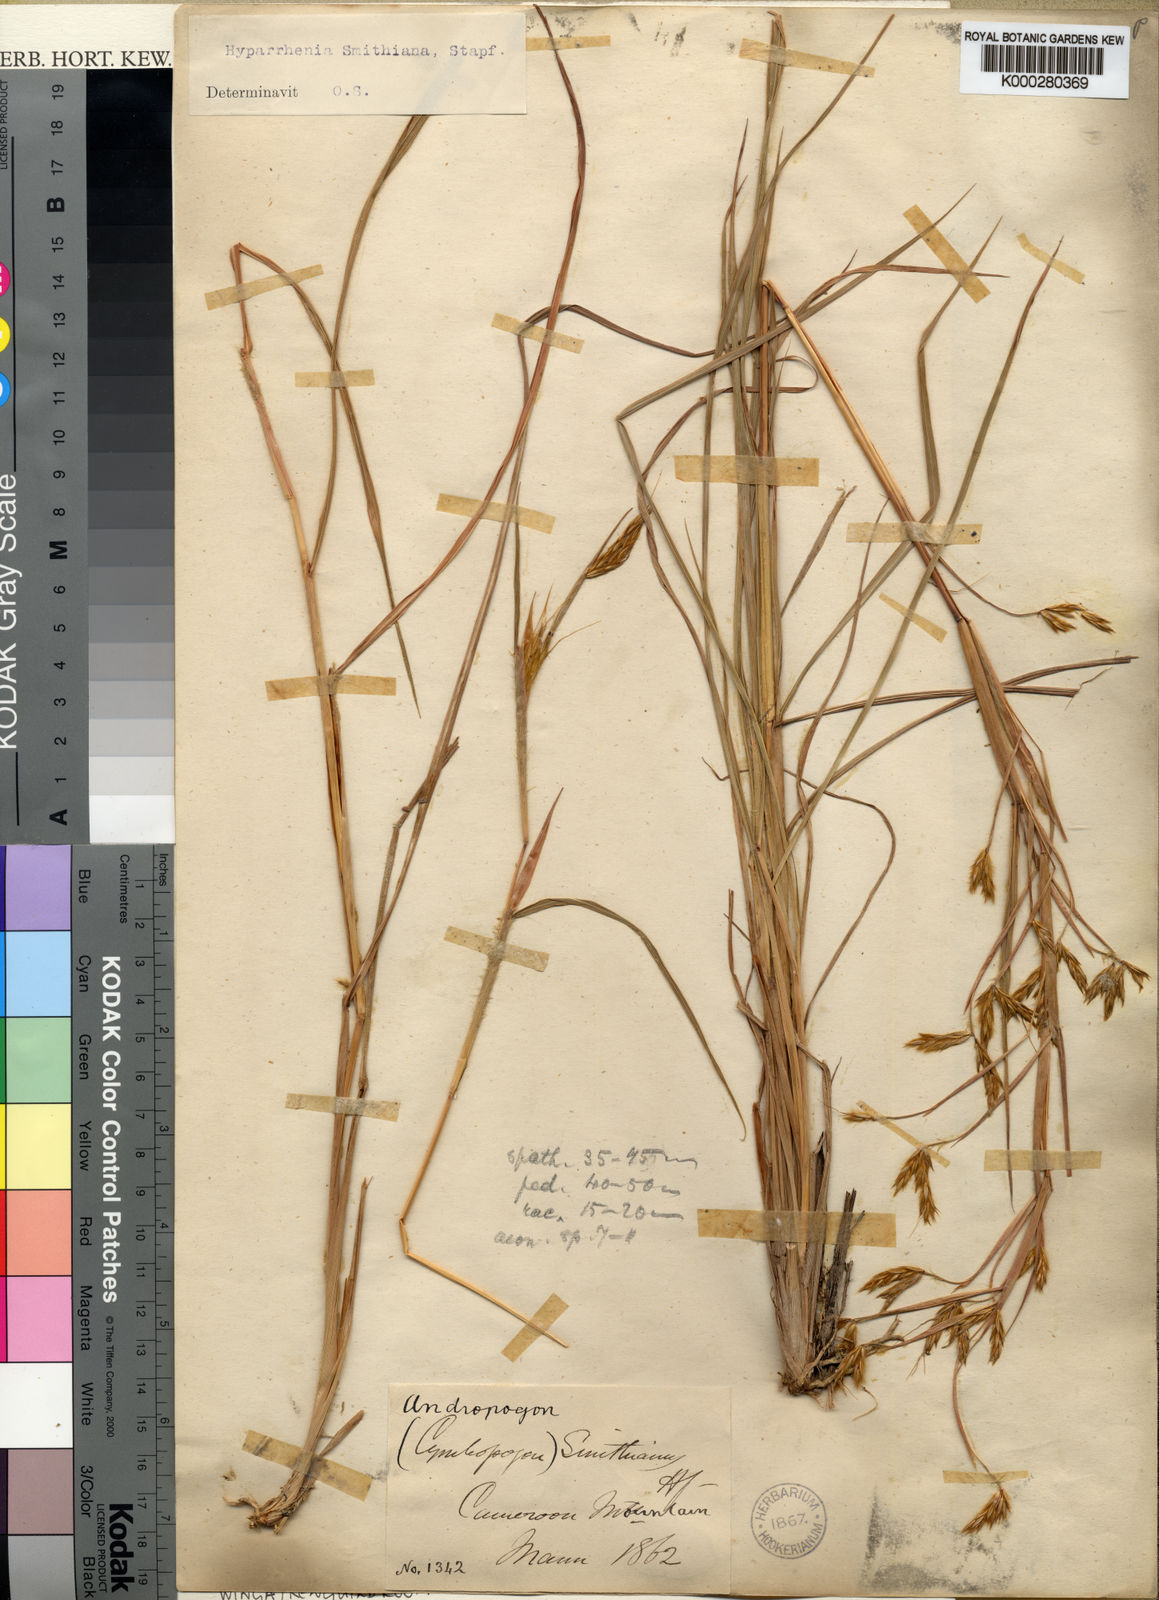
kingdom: Plantae
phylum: Tracheophyta
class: Liliopsida
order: Poales
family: Poaceae
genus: Hyparrhenia
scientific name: Hyparrhenia smithiana
